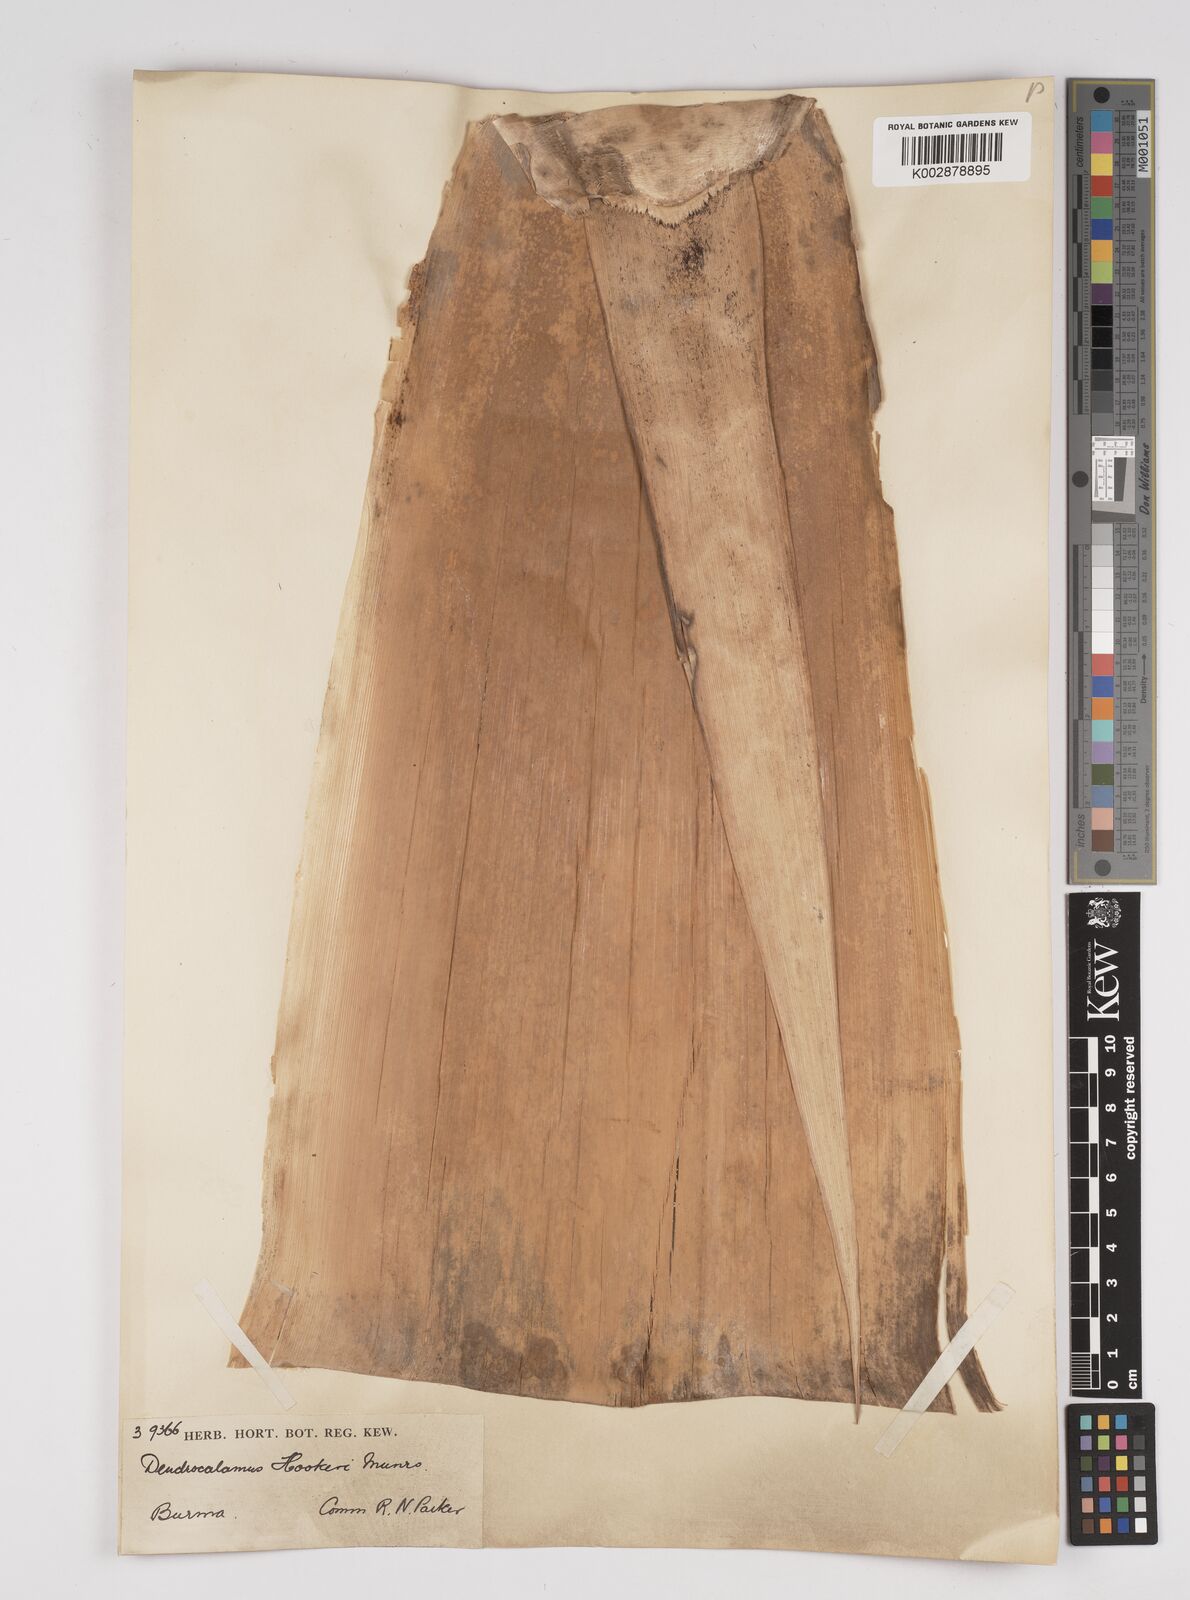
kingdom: Plantae
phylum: Tracheophyta
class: Liliopsida
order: Poales
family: Poaceae
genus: Dendrocalamus
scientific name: Dendrocalamus hookeri
